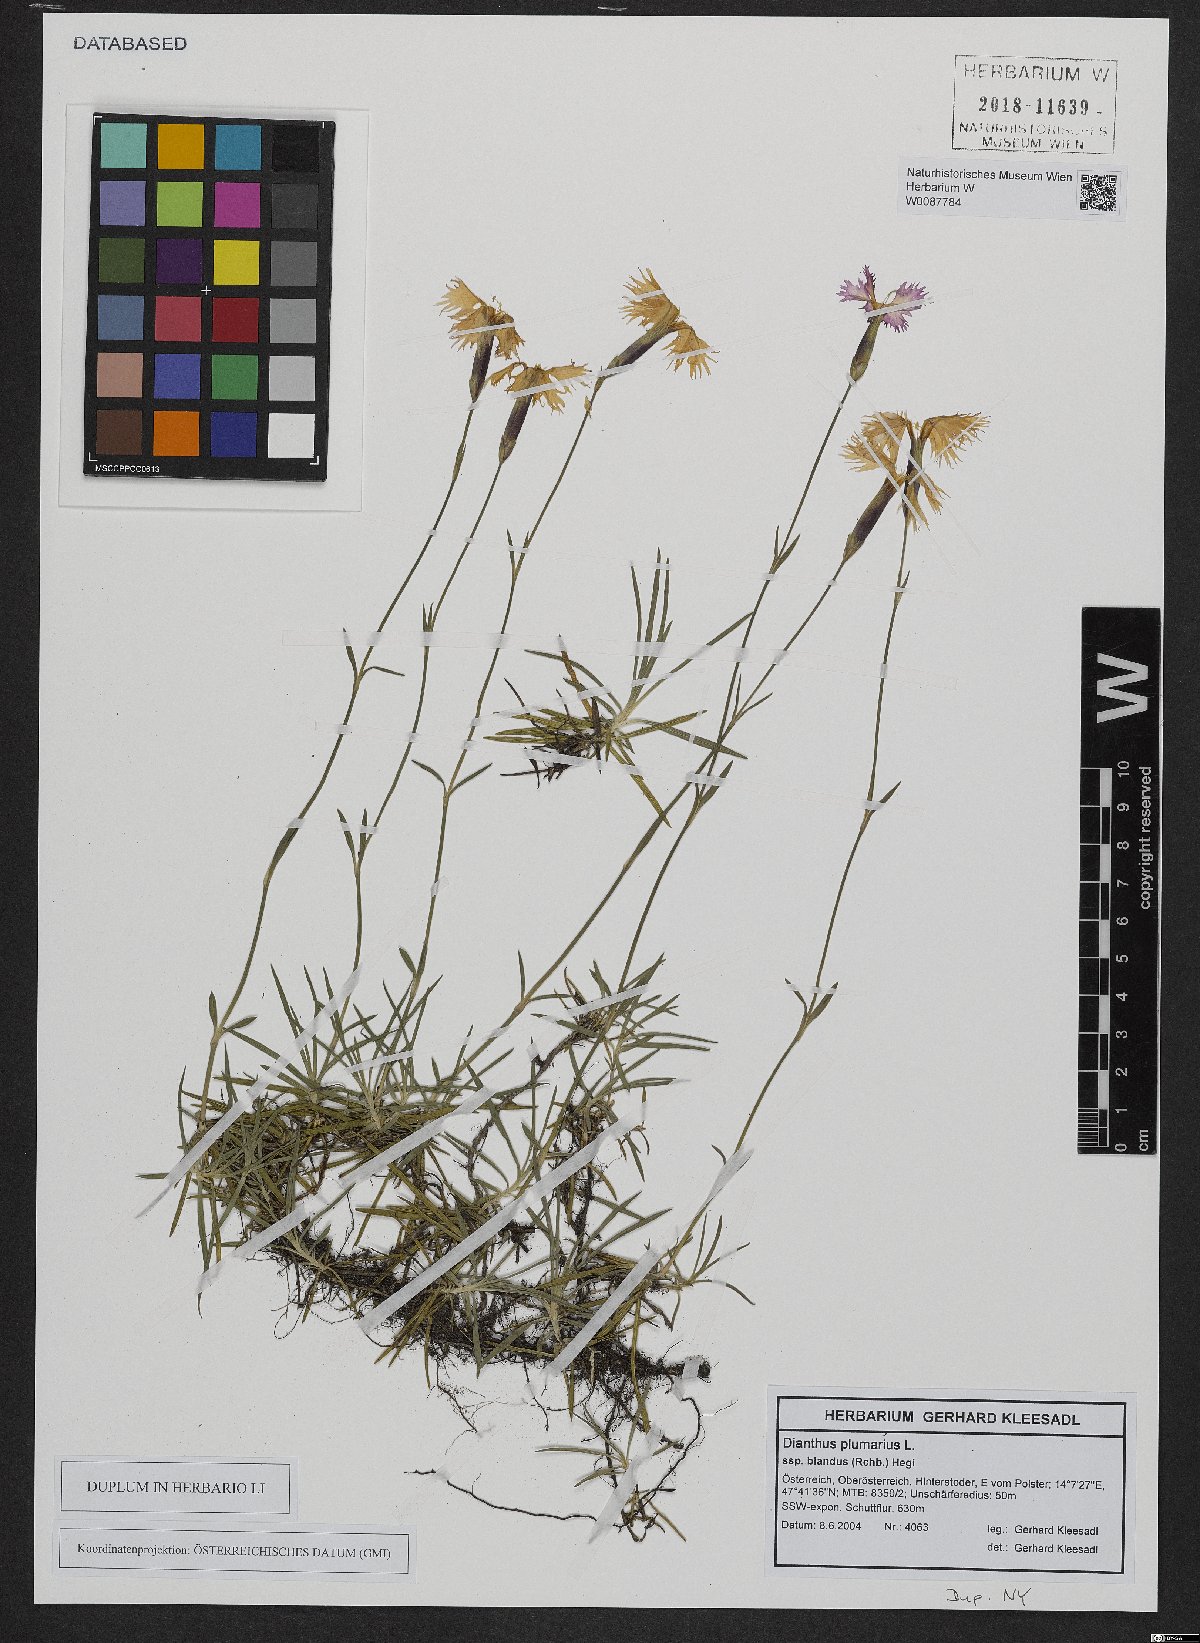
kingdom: Plantae
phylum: Tracheophyta
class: Magnoliopsida
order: Caryophyllales
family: Caryophyllaceae
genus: Dianthus
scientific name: Dianthus plumarius
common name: Pink
